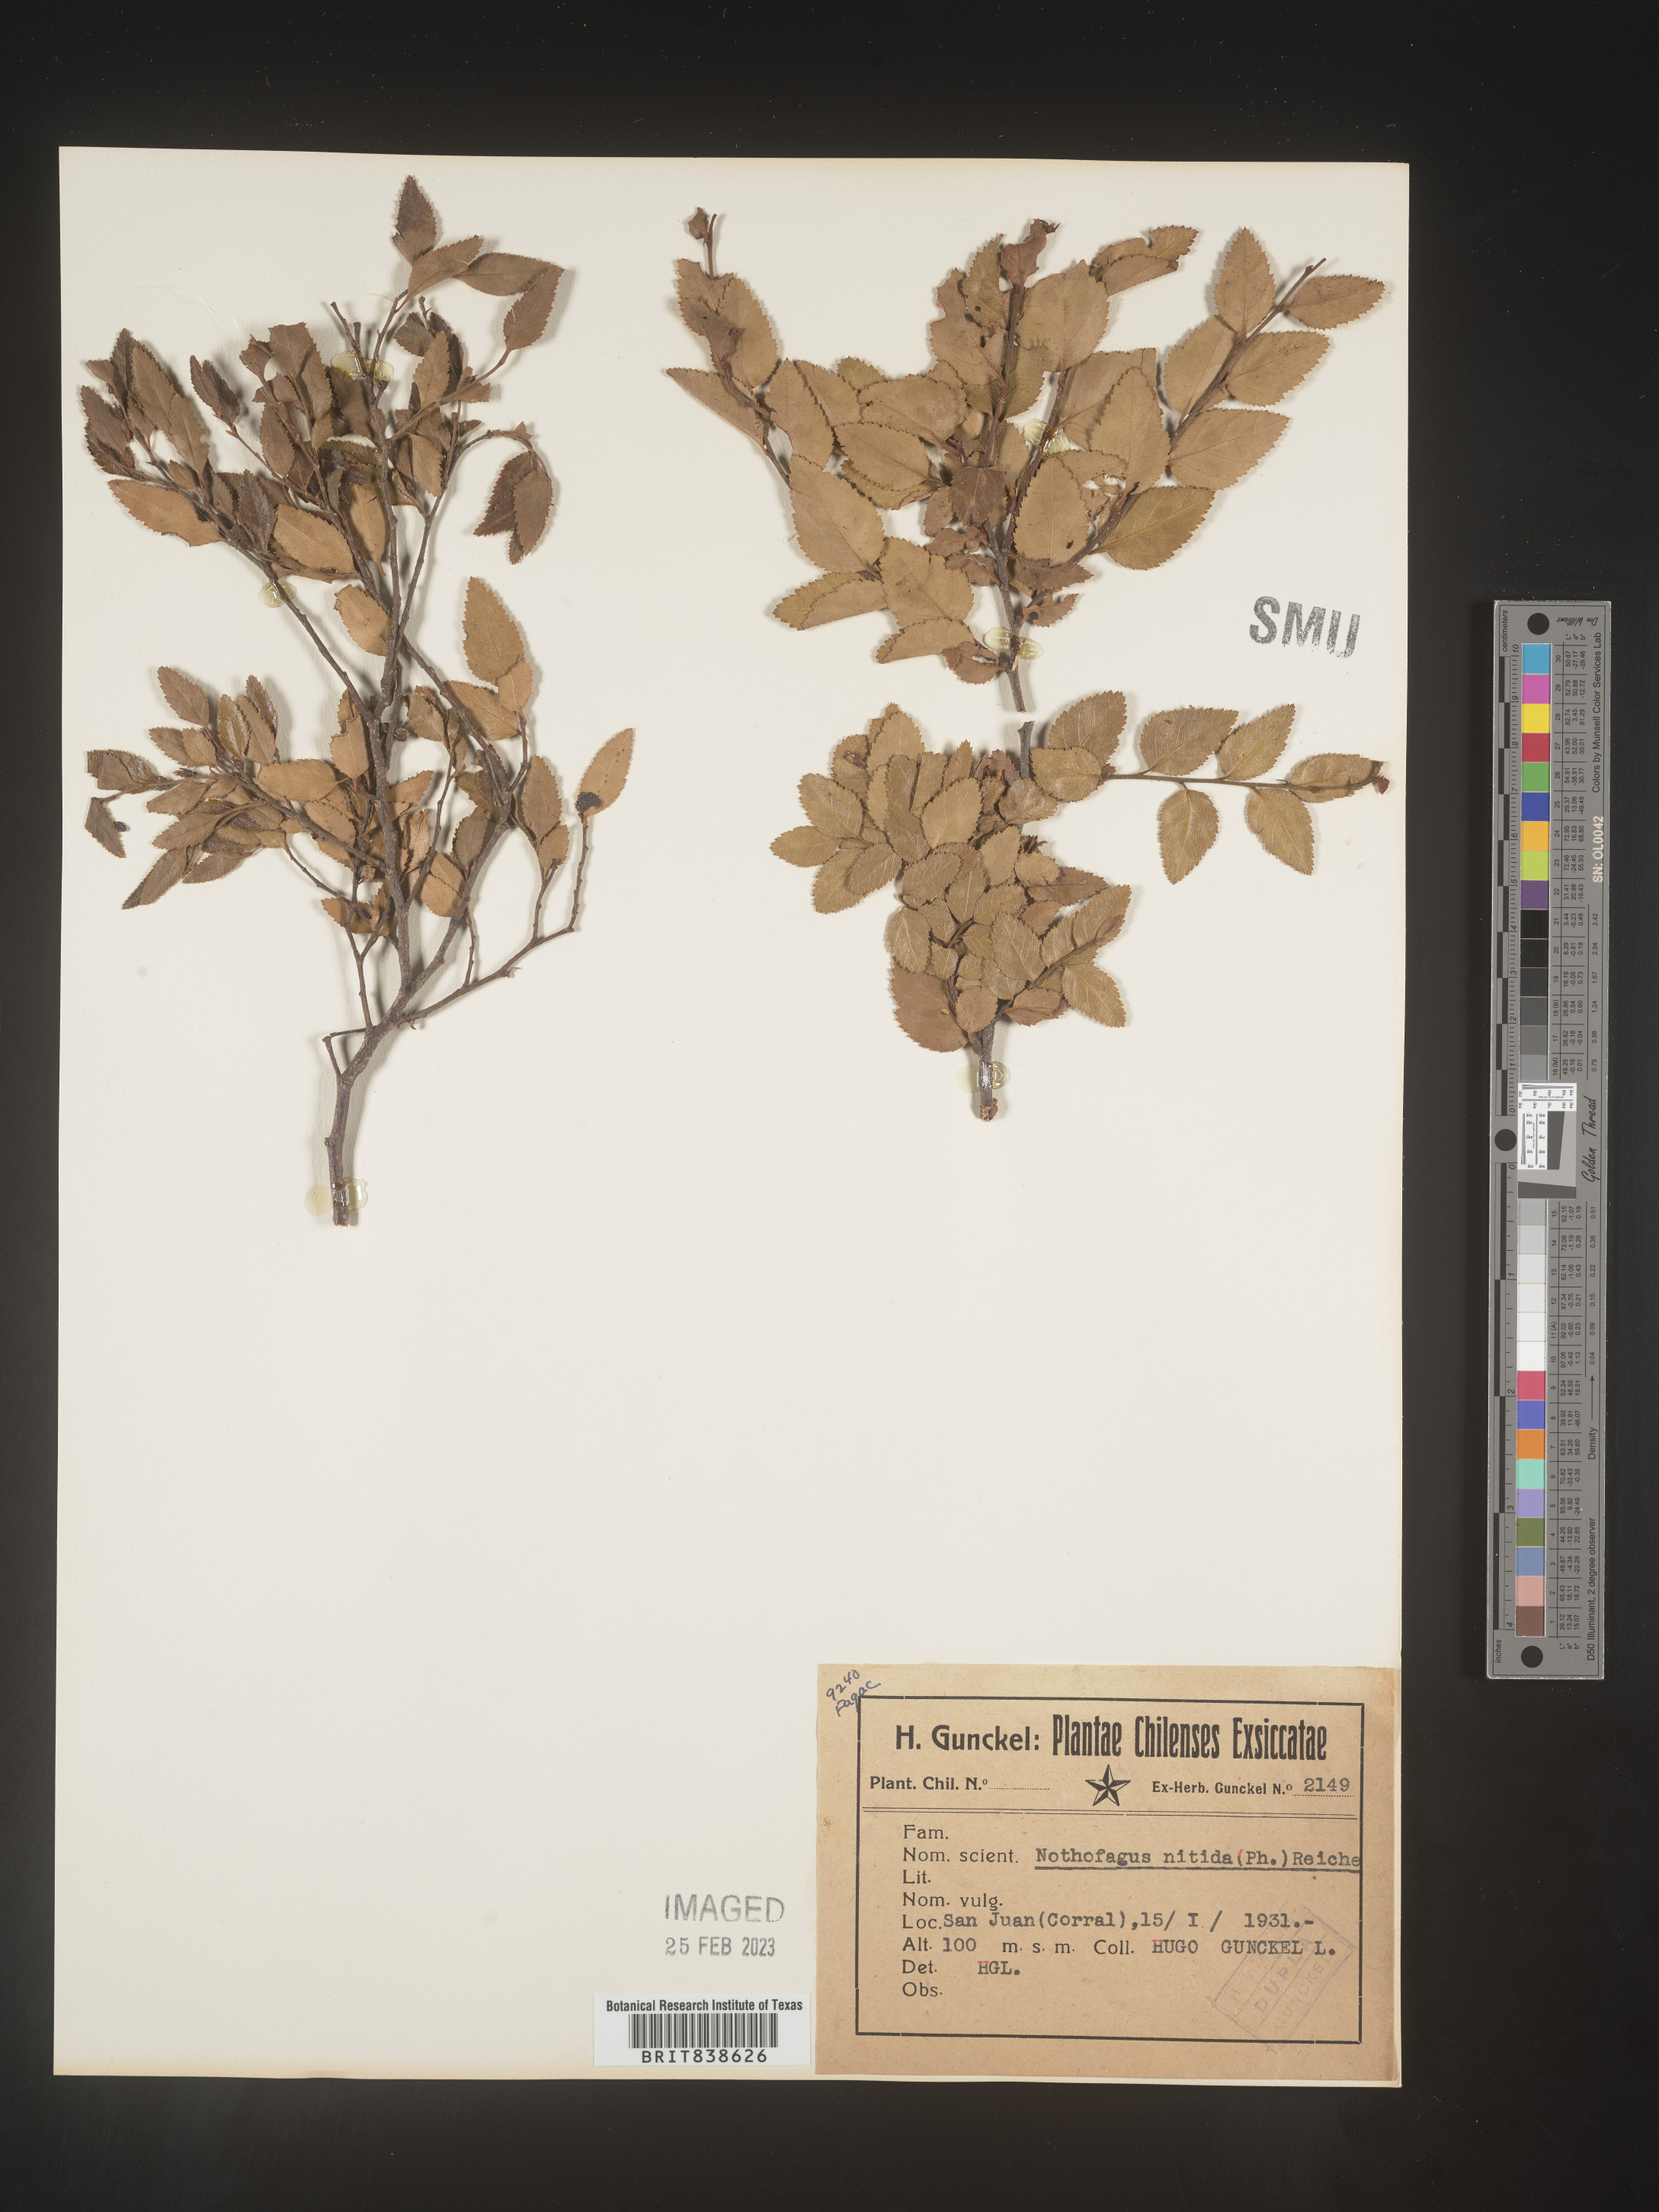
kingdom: Plantae
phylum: Tracheophyta
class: Magnoliopsida
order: Fagales
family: Nothofagaceae
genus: Nothofagus
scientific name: Nothofagus
